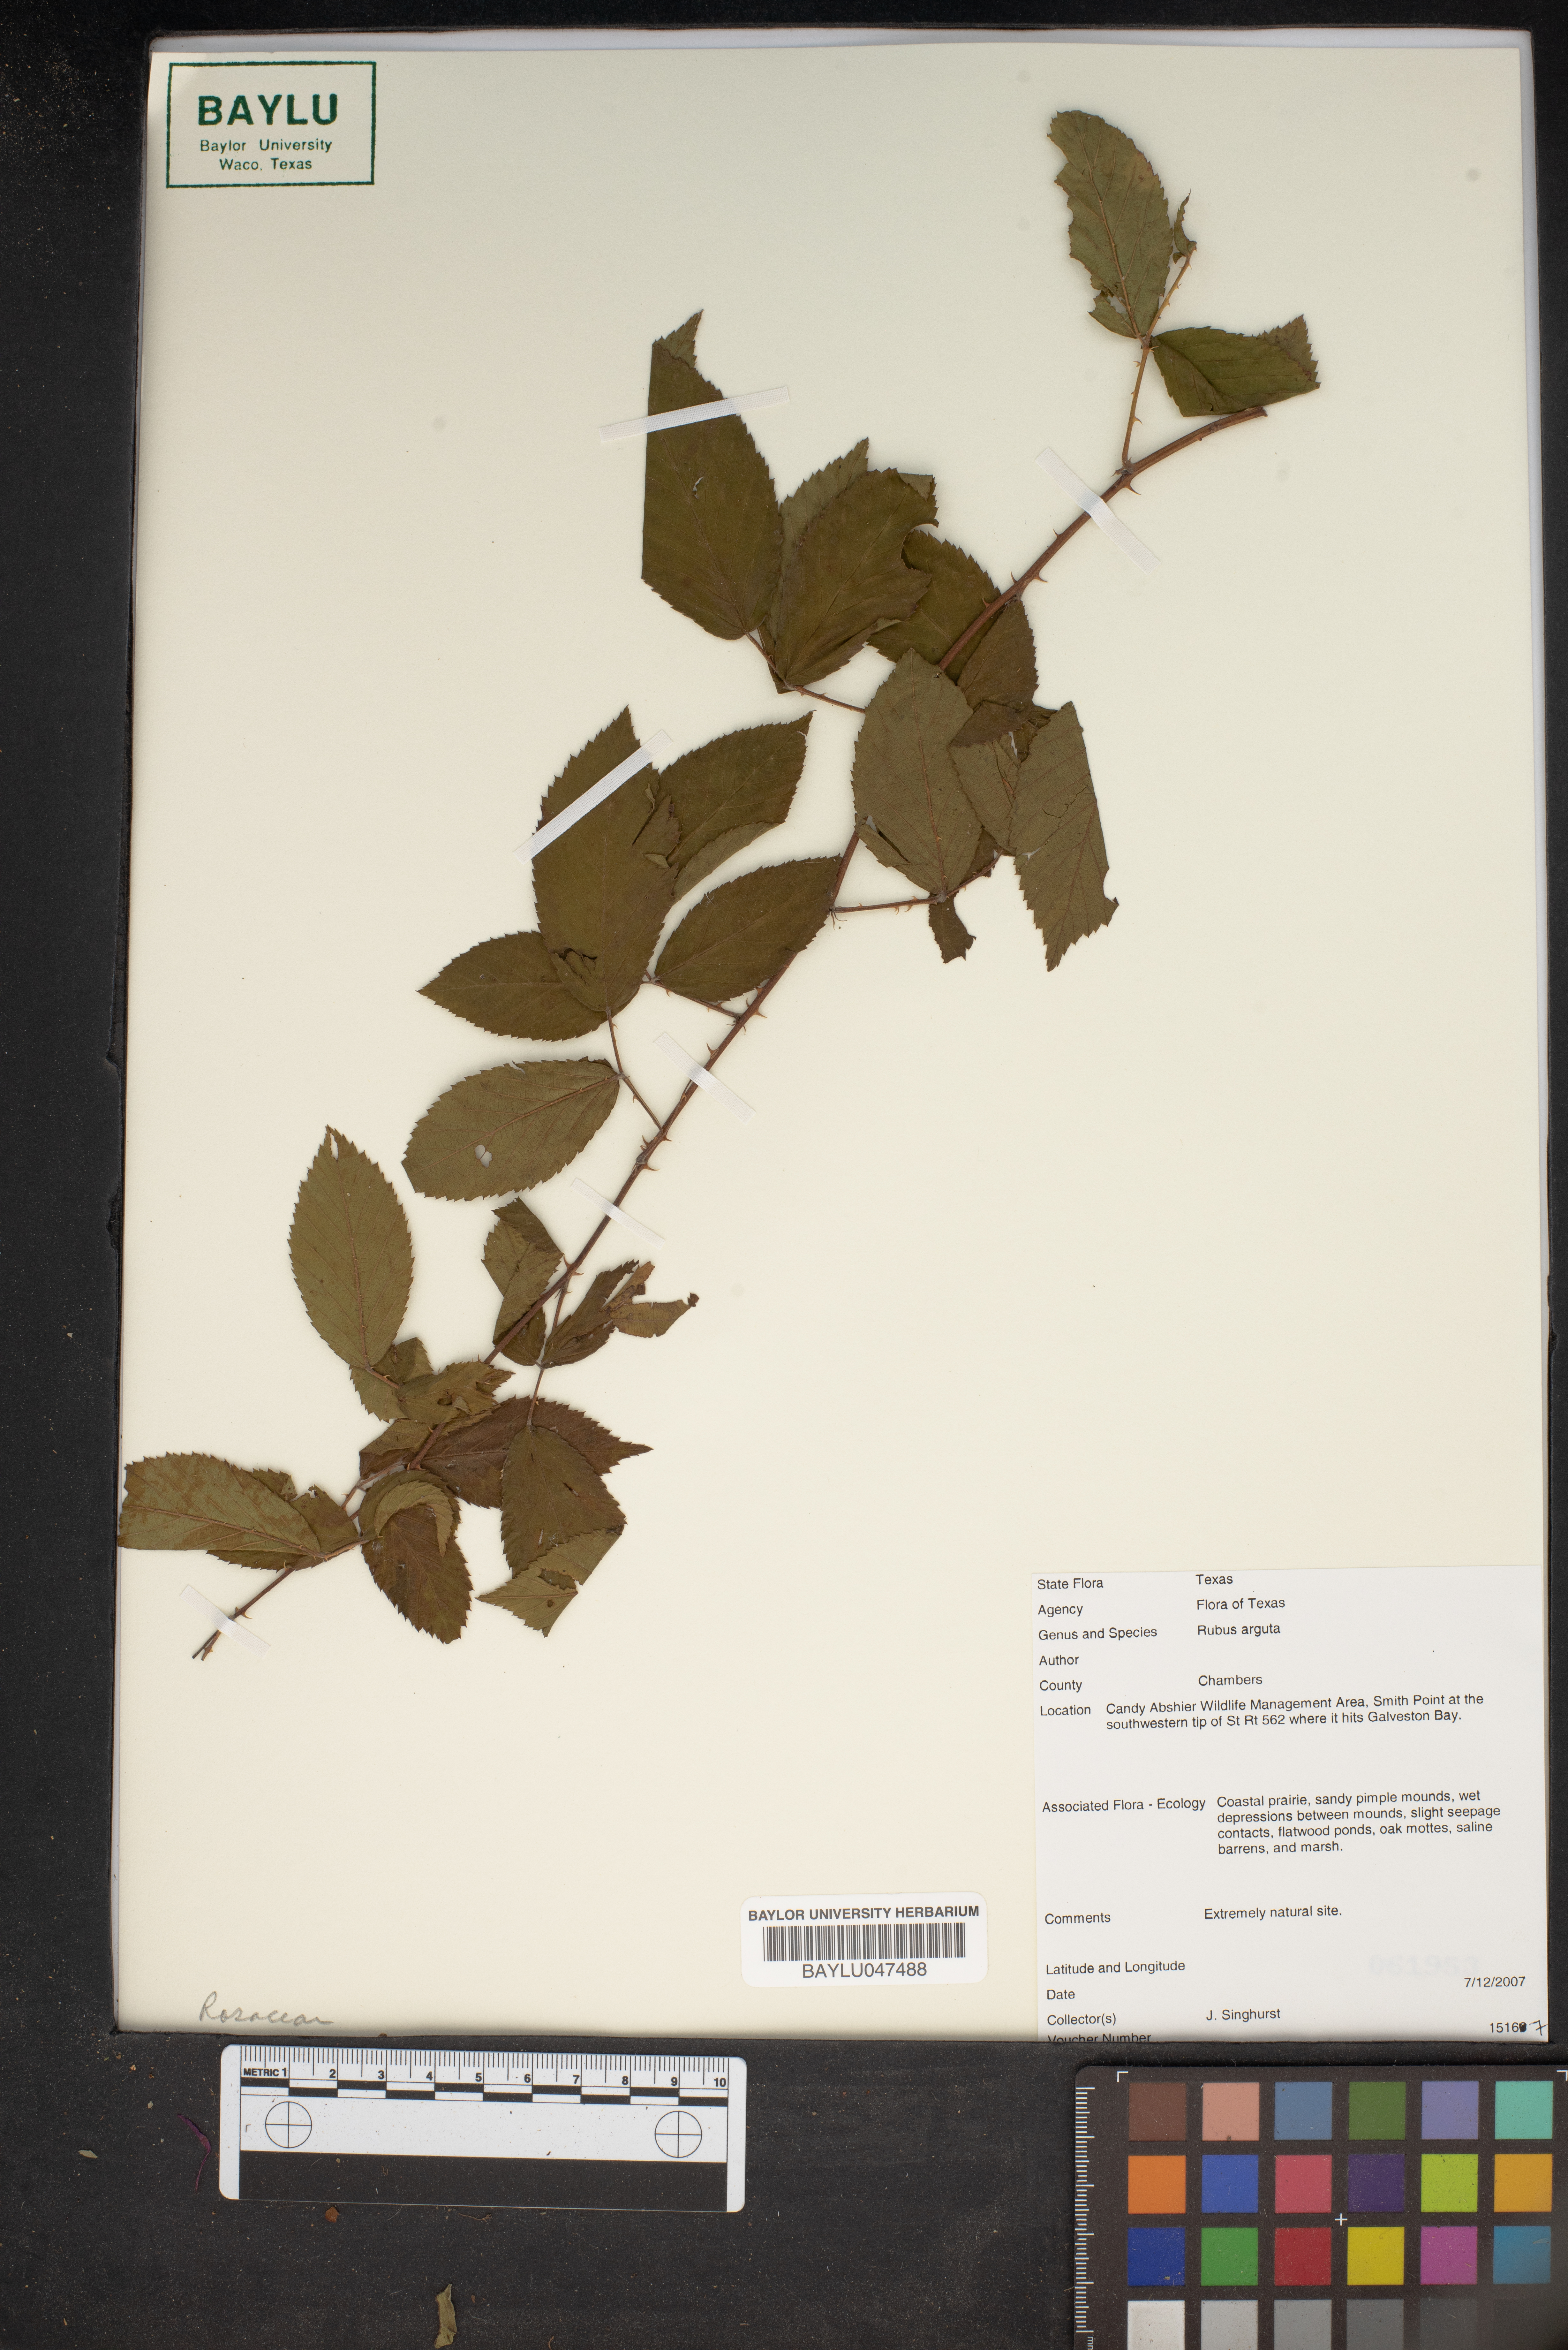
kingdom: Plantae
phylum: Tracheophyta
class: Magnoliopsida
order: Rosales
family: Rosaceae
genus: Rubus
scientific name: Rubus argutus
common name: Sawtooth blackberry
